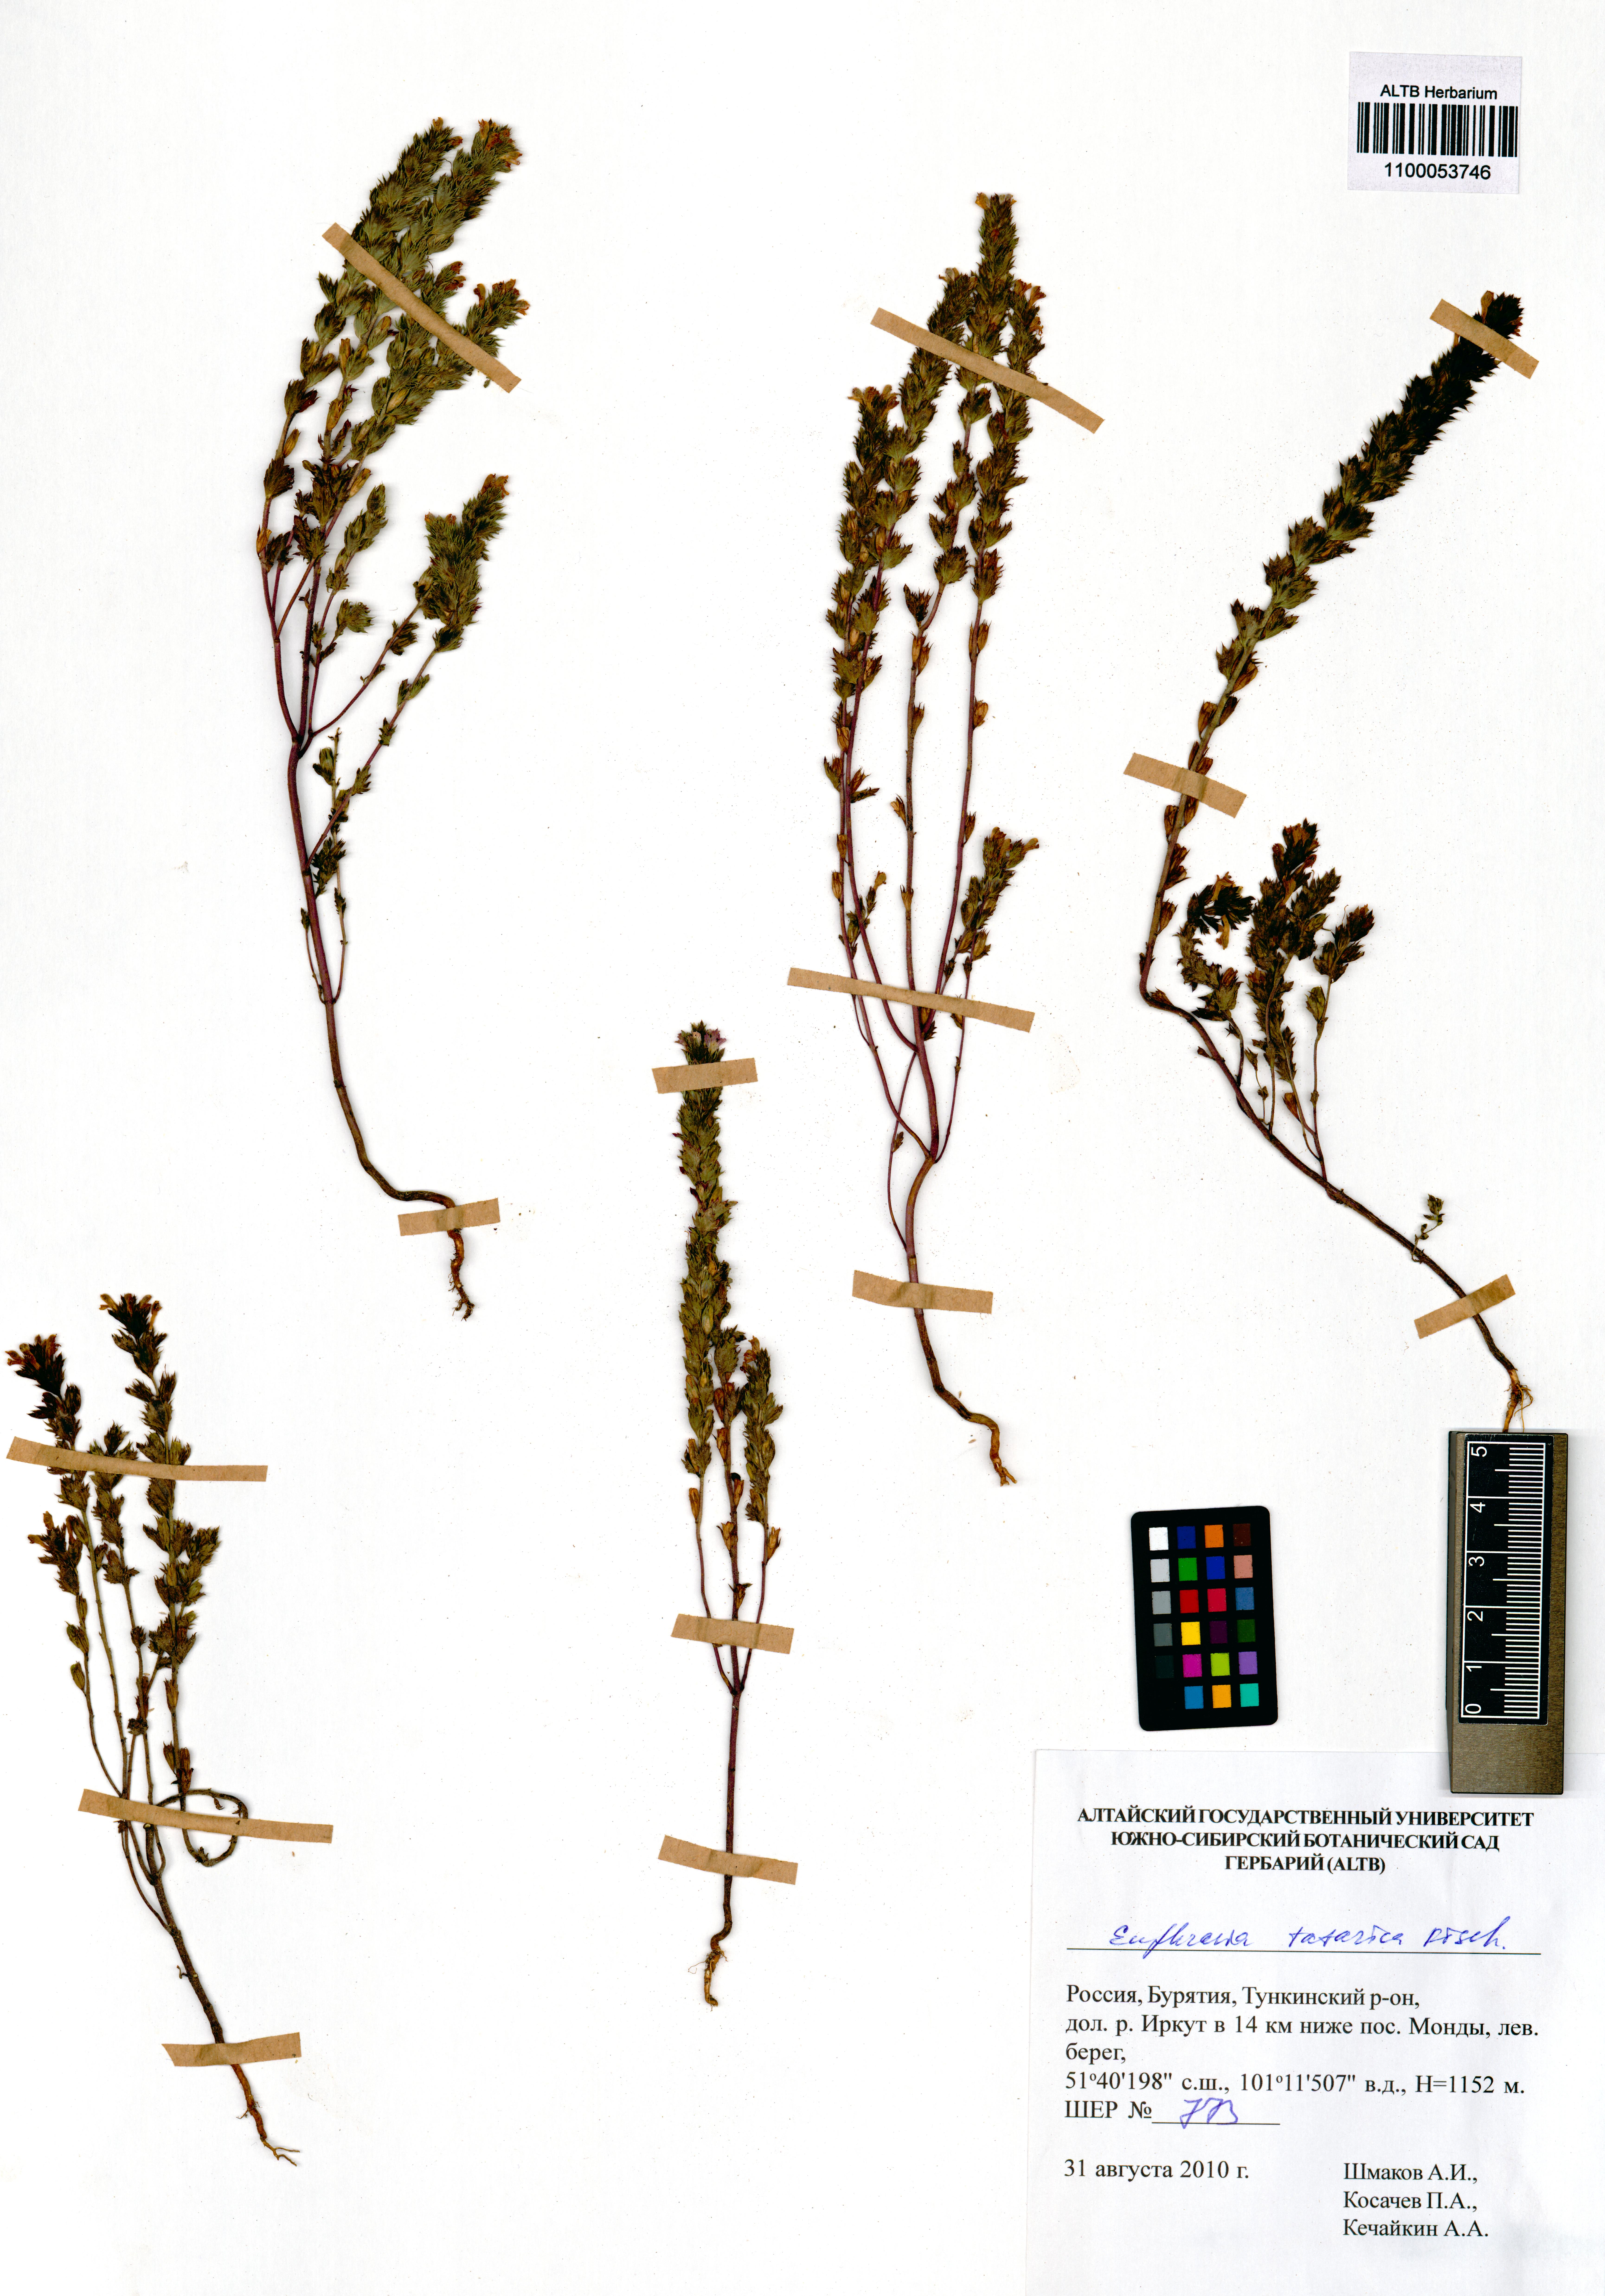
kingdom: Plantae
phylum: Tracheophyta
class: Magnoliopsida
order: Lamiales
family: Orobanchaceae
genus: Euphrasia
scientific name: Euphrasia pectinata
